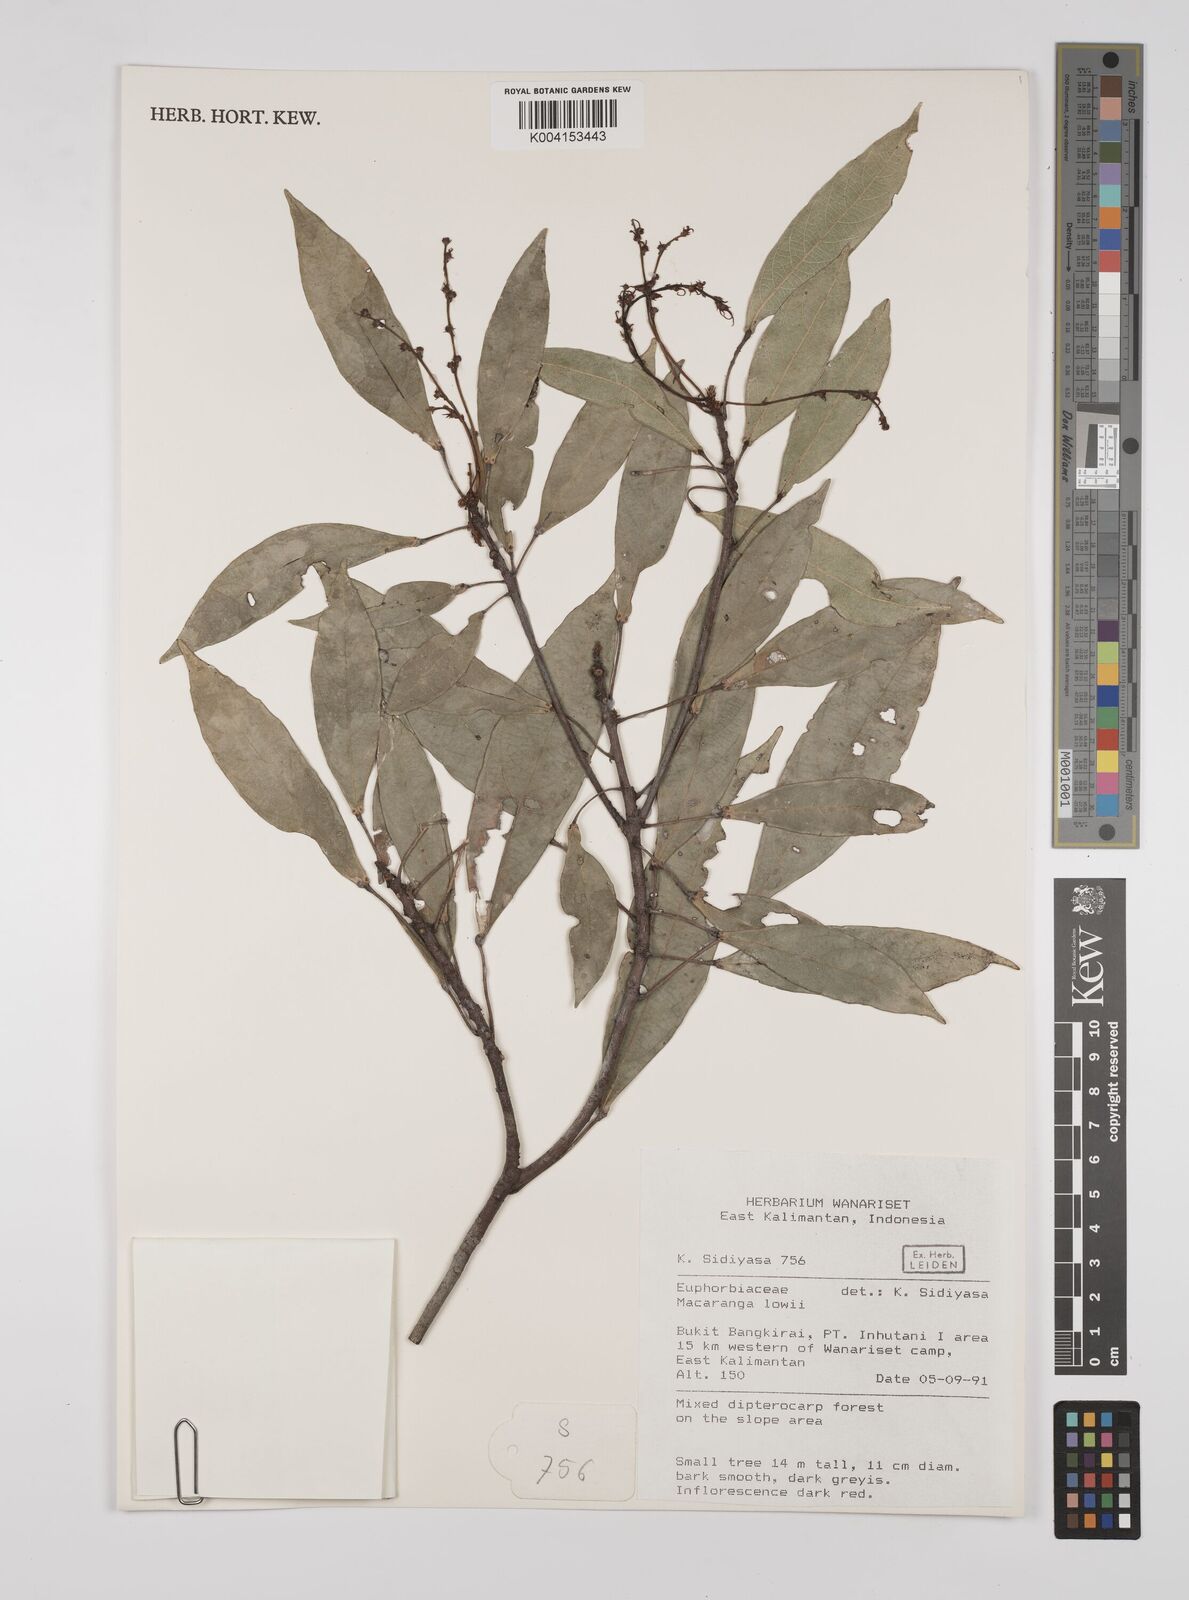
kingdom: Plantae
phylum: Tracheophyta
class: Magnoliopsida
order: Malpighiales
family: Euphorbiaceae
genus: Macaranga
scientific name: Macaranga lowii
